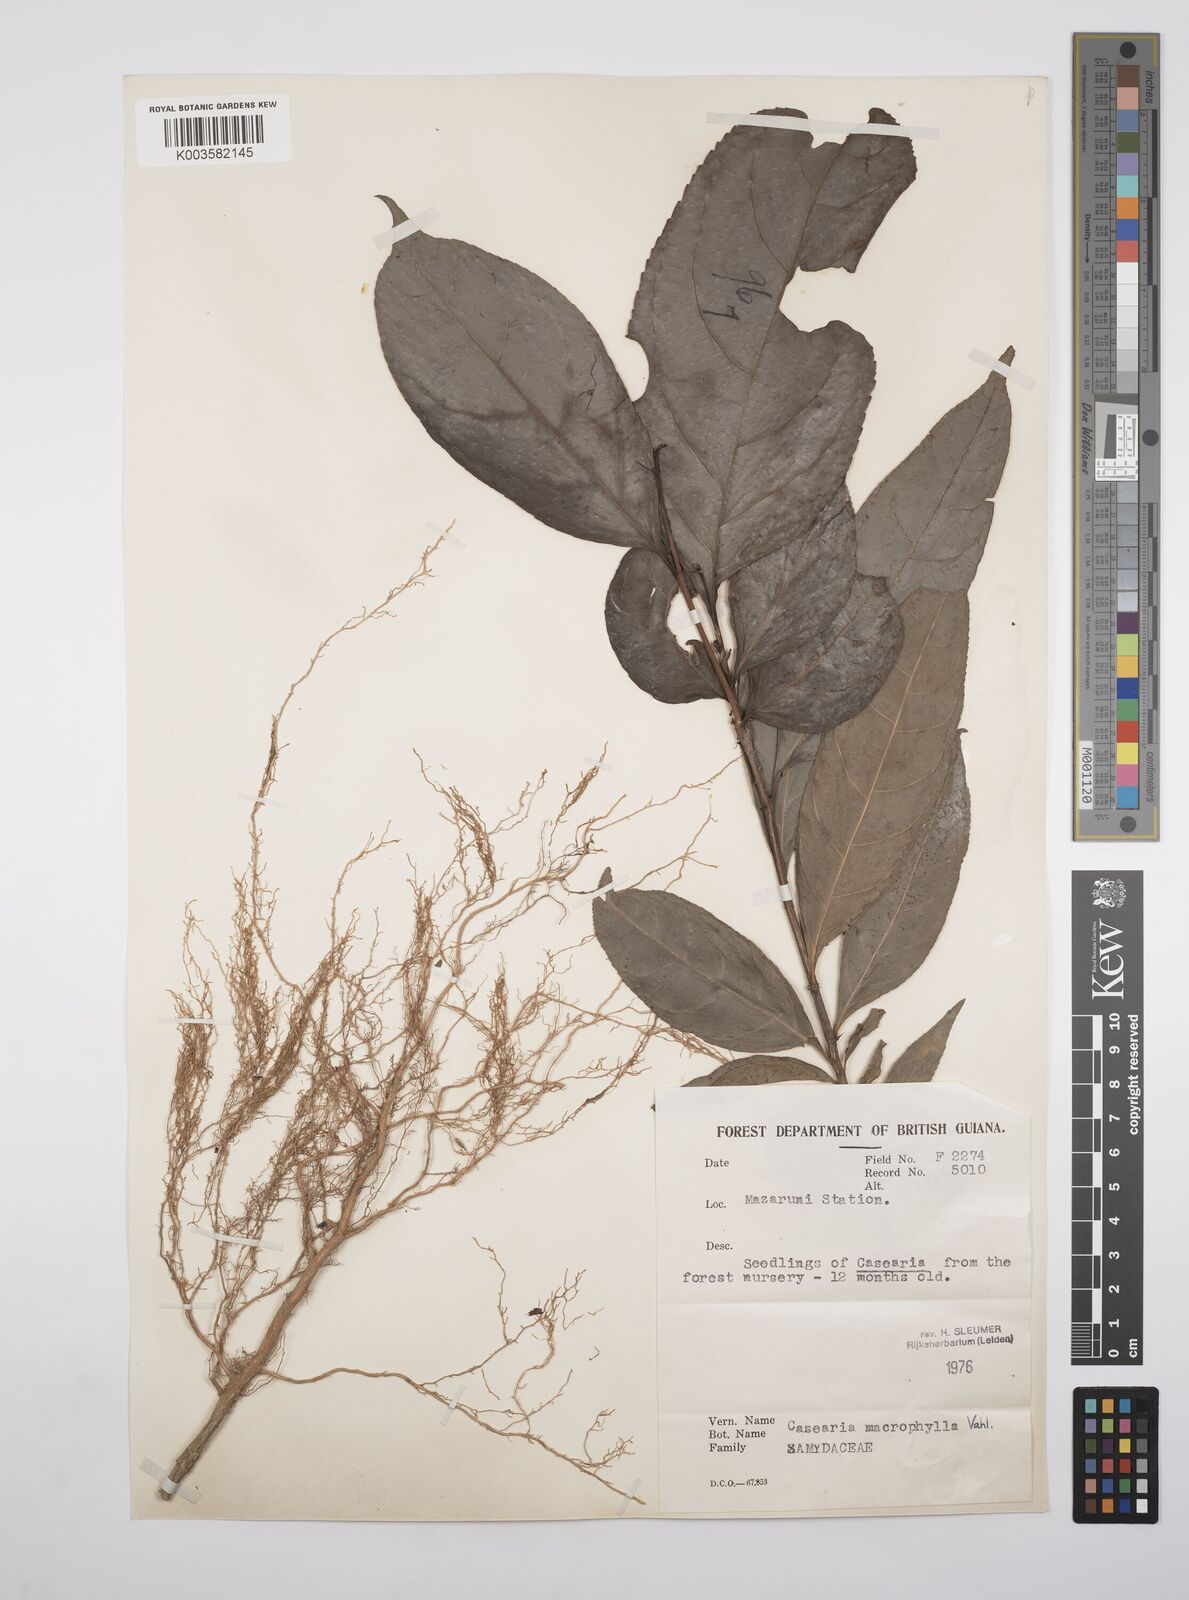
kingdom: Plantae
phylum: Tracheophyta
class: Magnoliopsida
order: Malpighiales
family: Salicaceae
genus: Casearia
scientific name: Casearia pitumba
